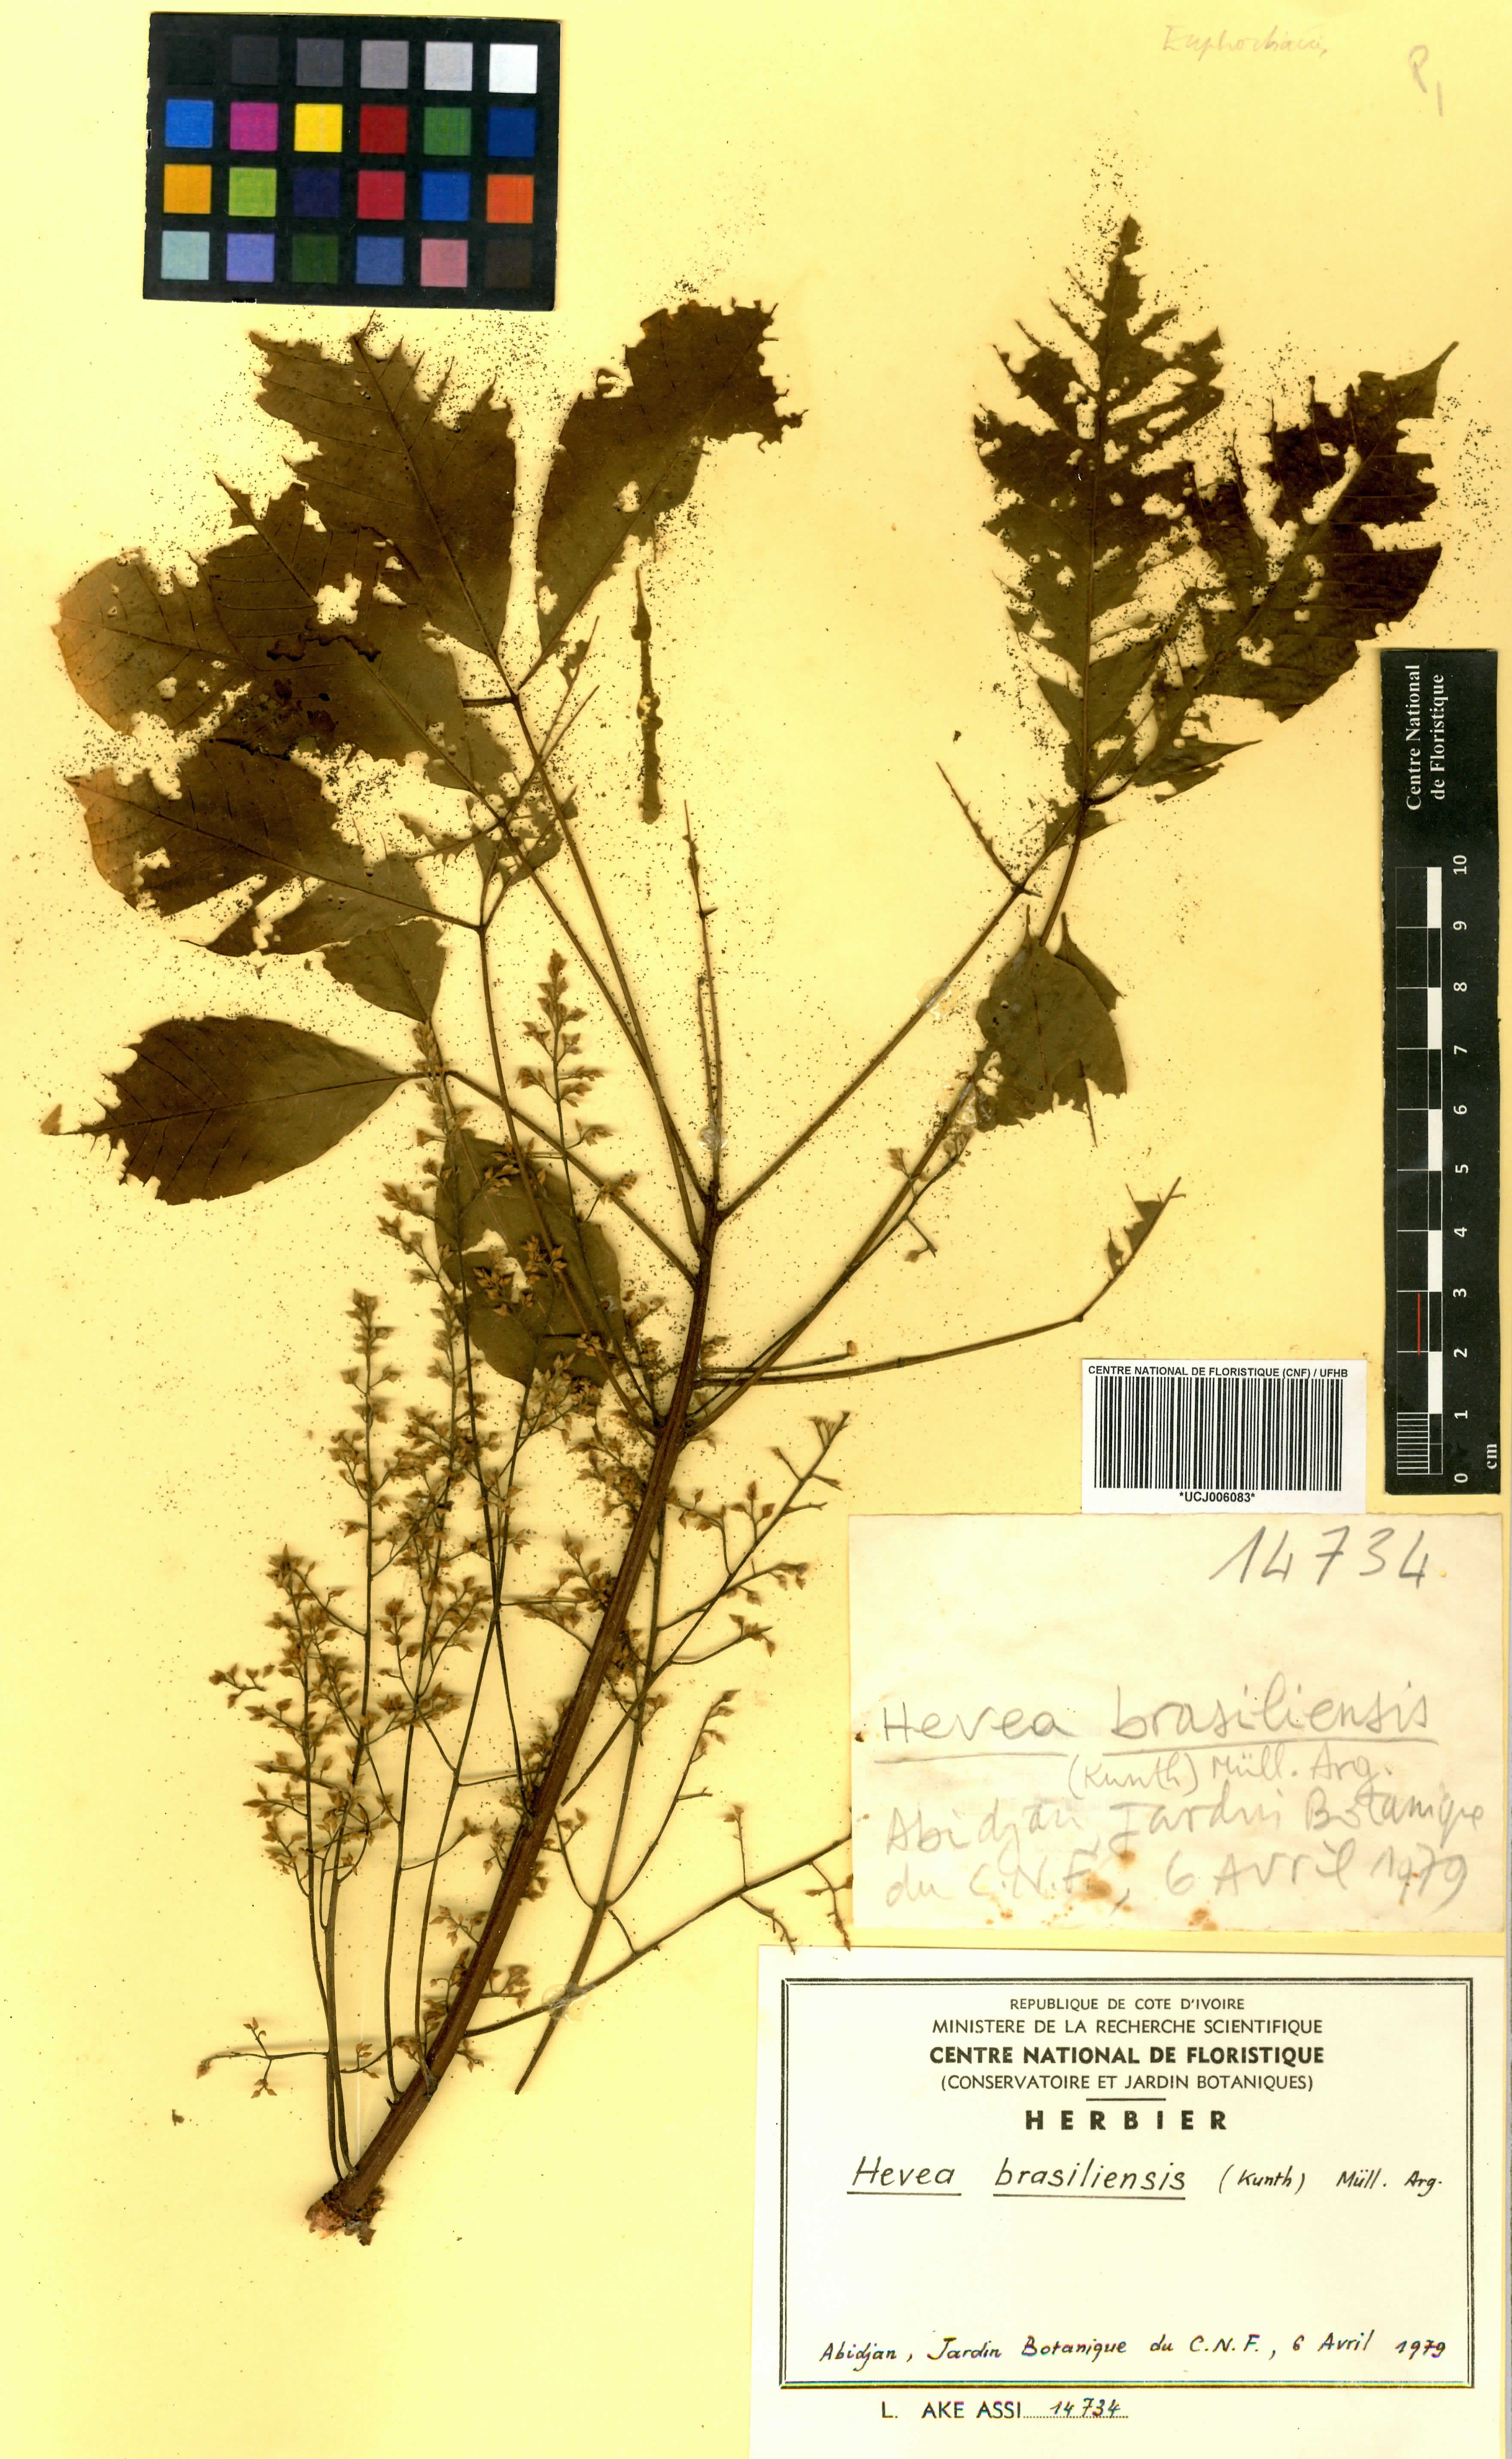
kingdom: Plantae
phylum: Tracheophyta
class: Magnoliopsida
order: Malpighiales
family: Euphorbiaceae
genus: Hevea
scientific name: Hevea brasiliensis
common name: Natural rubber
